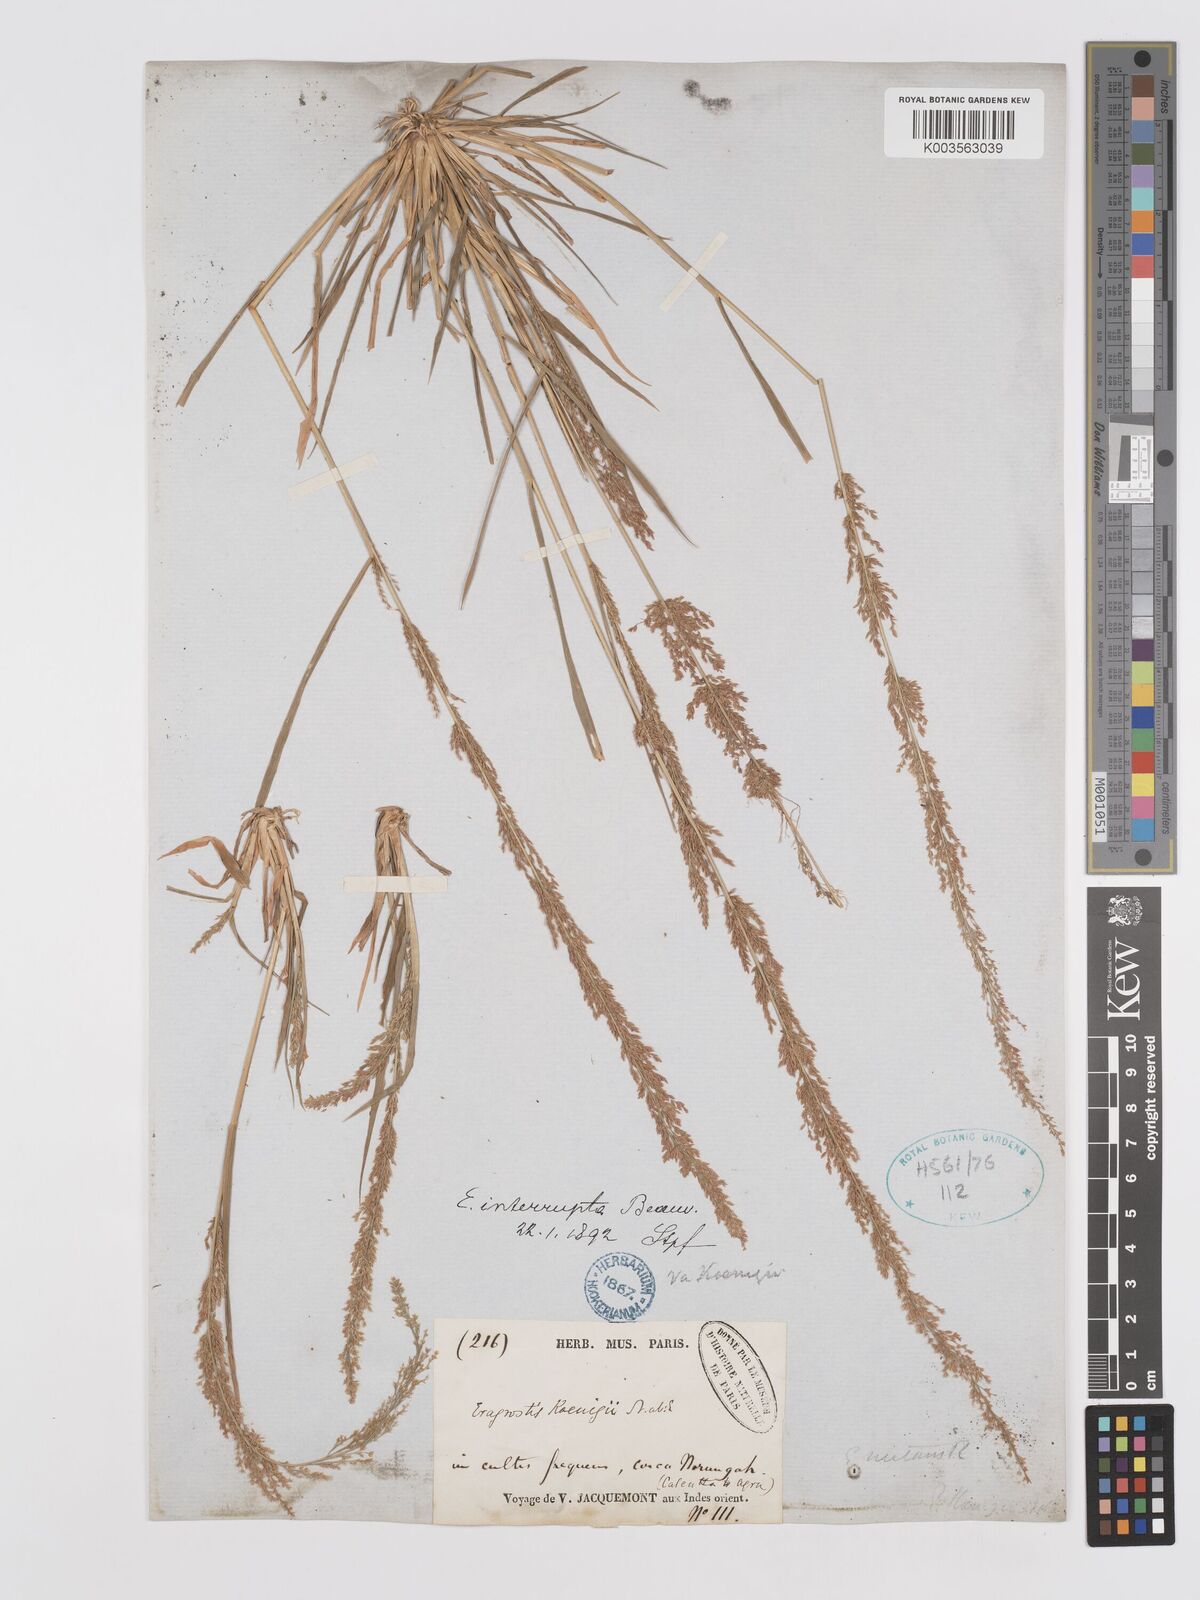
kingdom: Plantae
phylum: Tracheophyta
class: Liliopsida
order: Poales
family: Poaceae
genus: Eragrostis
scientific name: Eragrostis japonica
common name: Pond lovegrass
